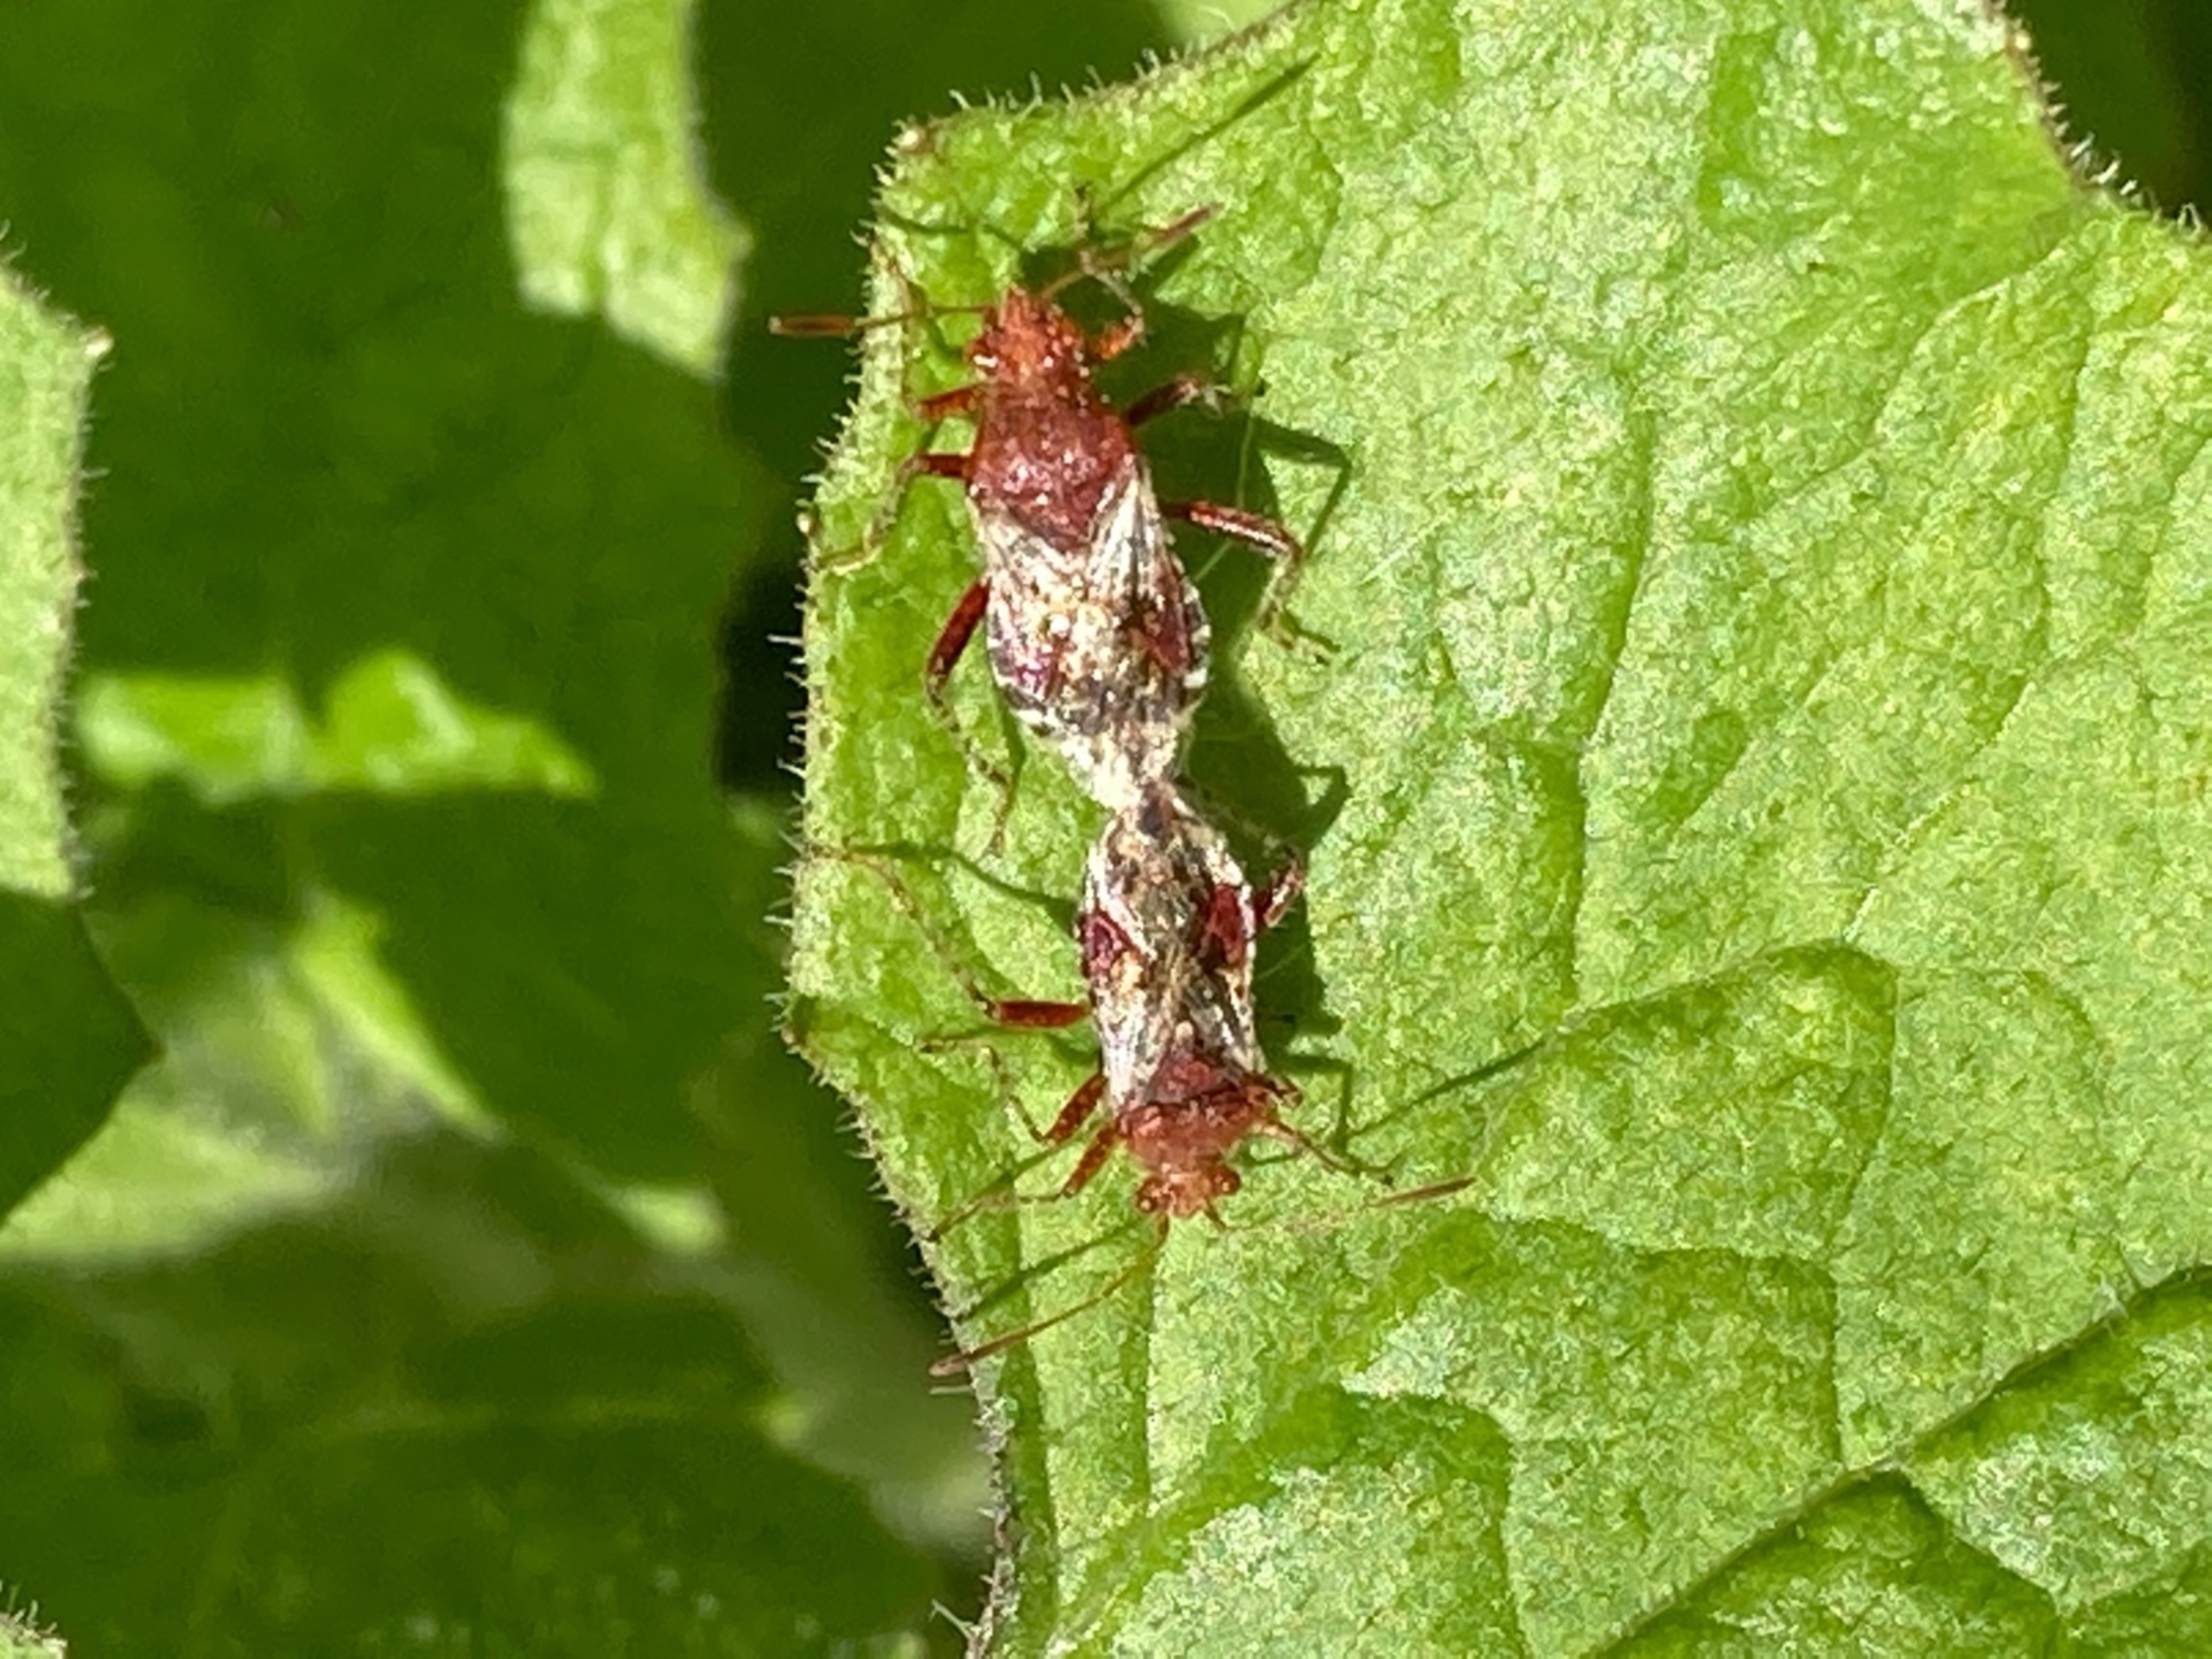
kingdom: Animalia
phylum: Arthropoda
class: Insecta
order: Hemiptera
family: Rhopalidae
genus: Rhopalus
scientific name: Rhopalus subrufus
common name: Skovkanttæge
